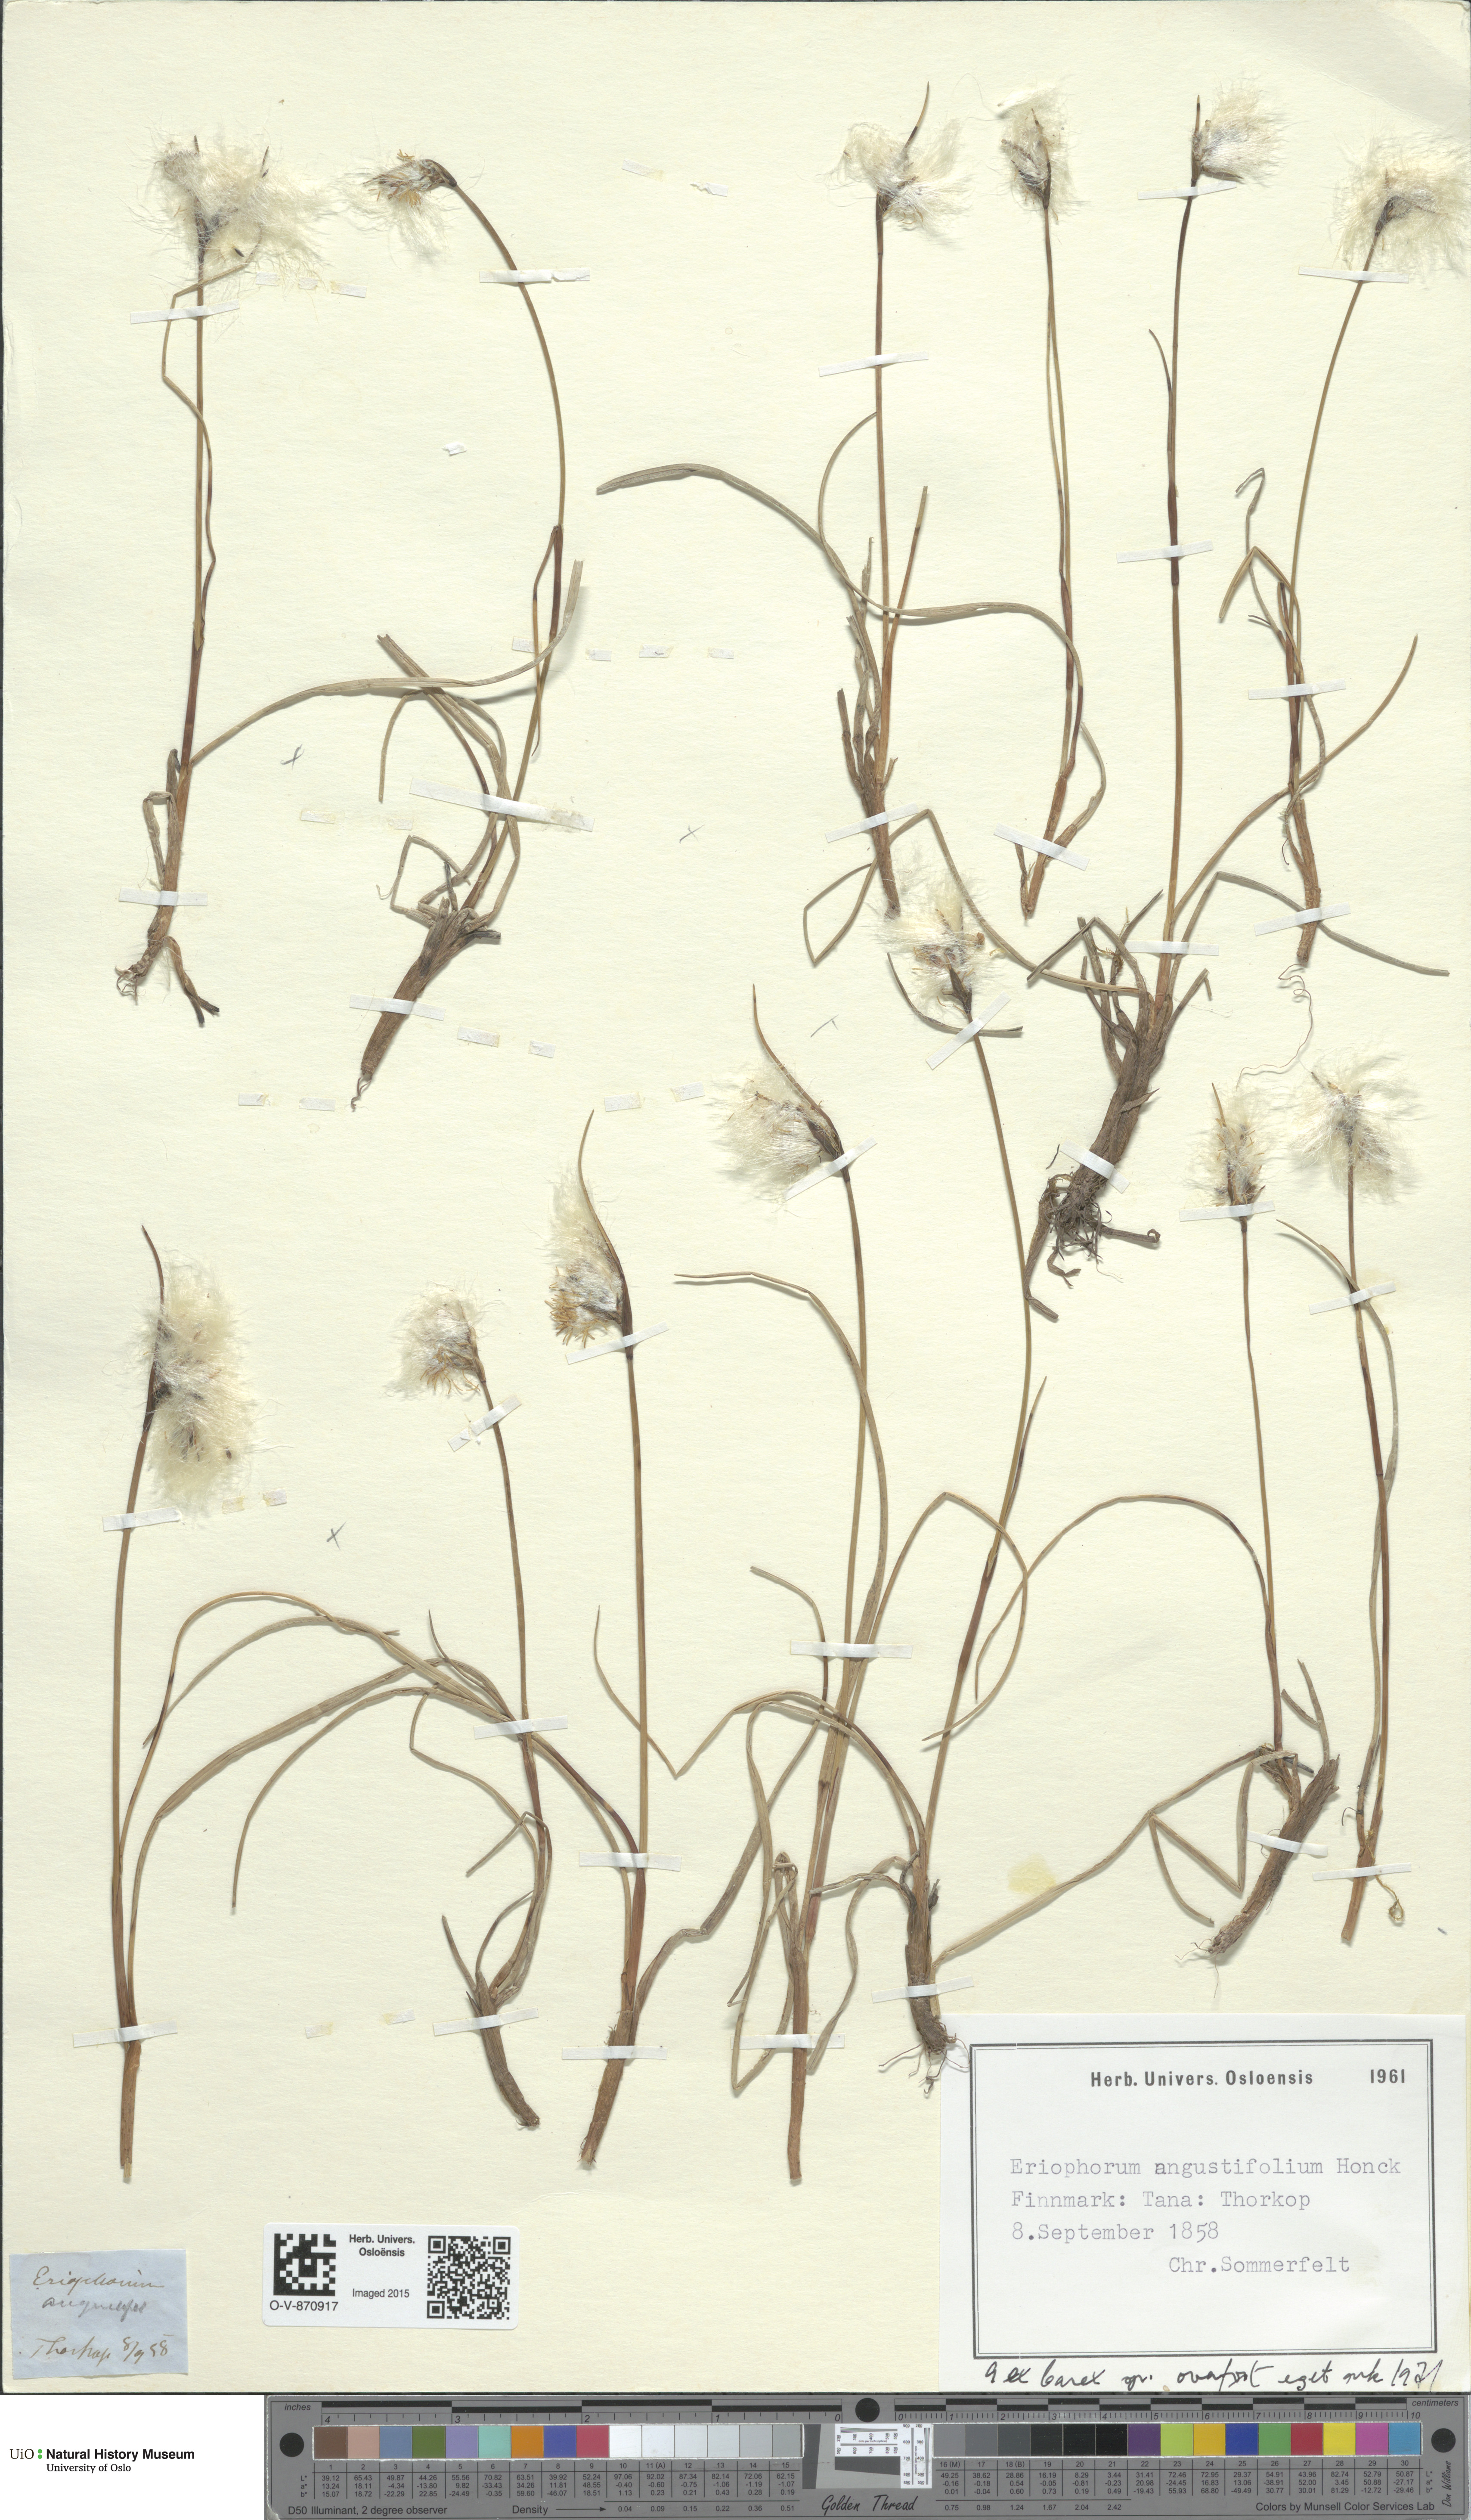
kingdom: Plantae
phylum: Tracheophyta
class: Liliopsida
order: Poales
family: Cyperaceae
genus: Eriophorum
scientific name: Eriophorum angustifolium
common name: Common cottongrass
